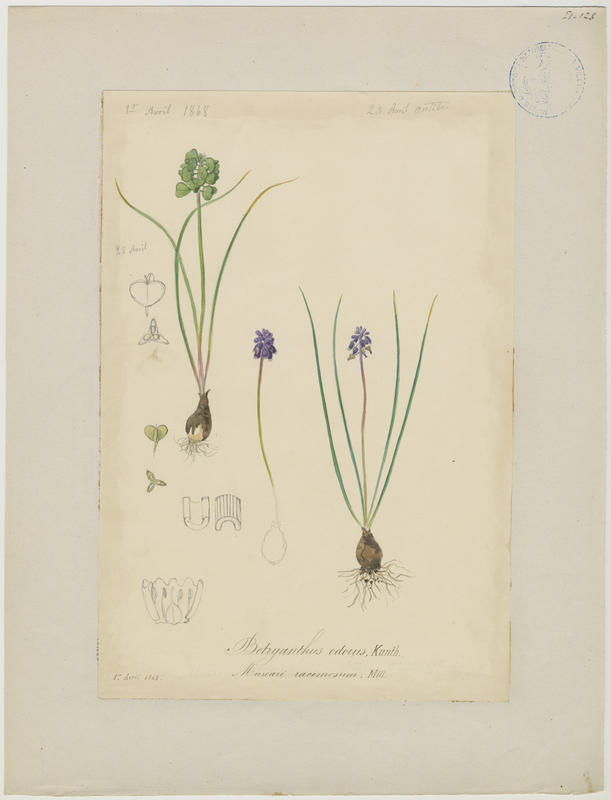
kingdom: Plantae
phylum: Tracheophyta
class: Liliopsida
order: Asparagales
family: Asparagaceae
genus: Muscari
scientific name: Muscari neglectum
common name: Grape-hyacinth
